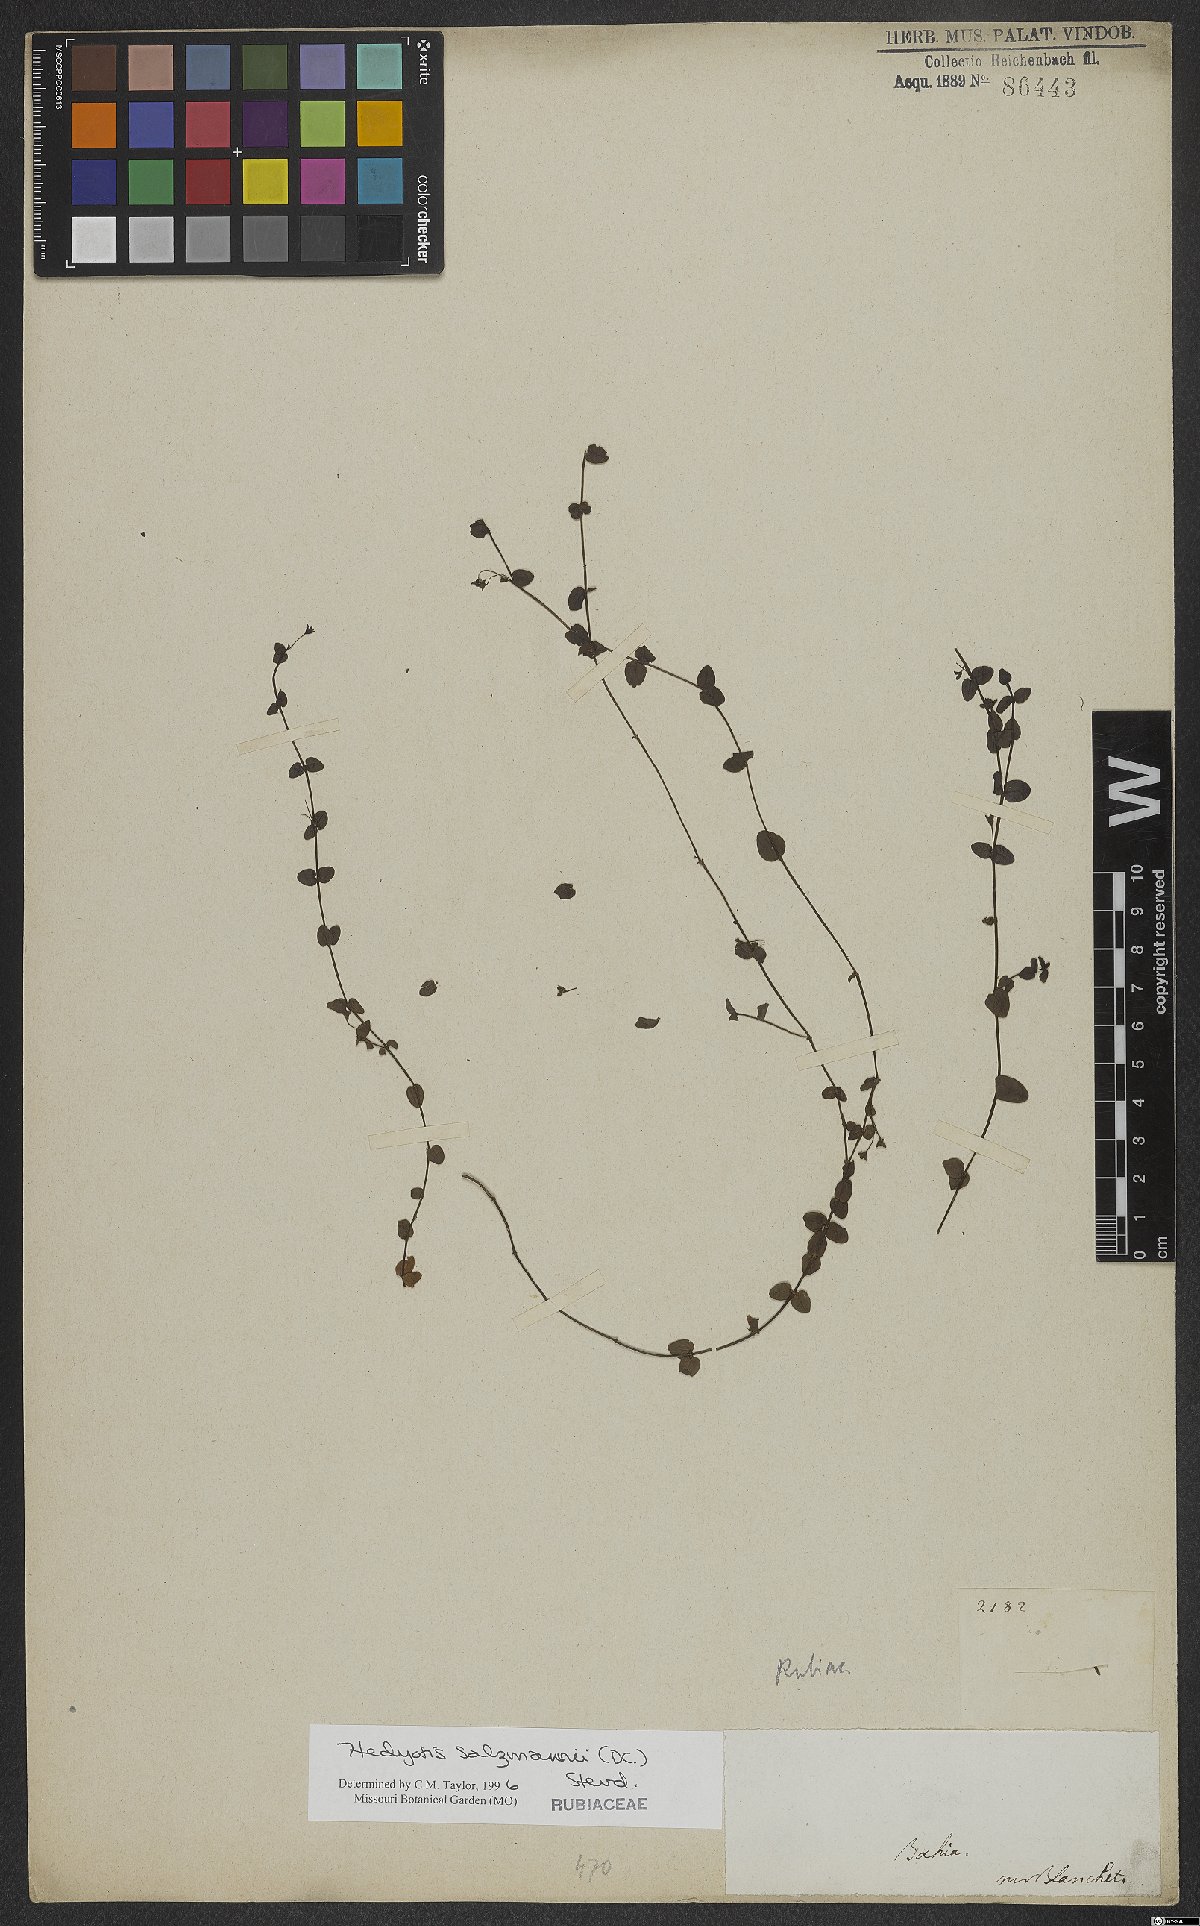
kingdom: Plantae
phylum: Tracheophyta
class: Magnoliopsida
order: Gentianales
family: Rubiaceae
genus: Oldenlandia
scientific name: Oldenlandia salzmannii
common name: Salzmann's mille graines
